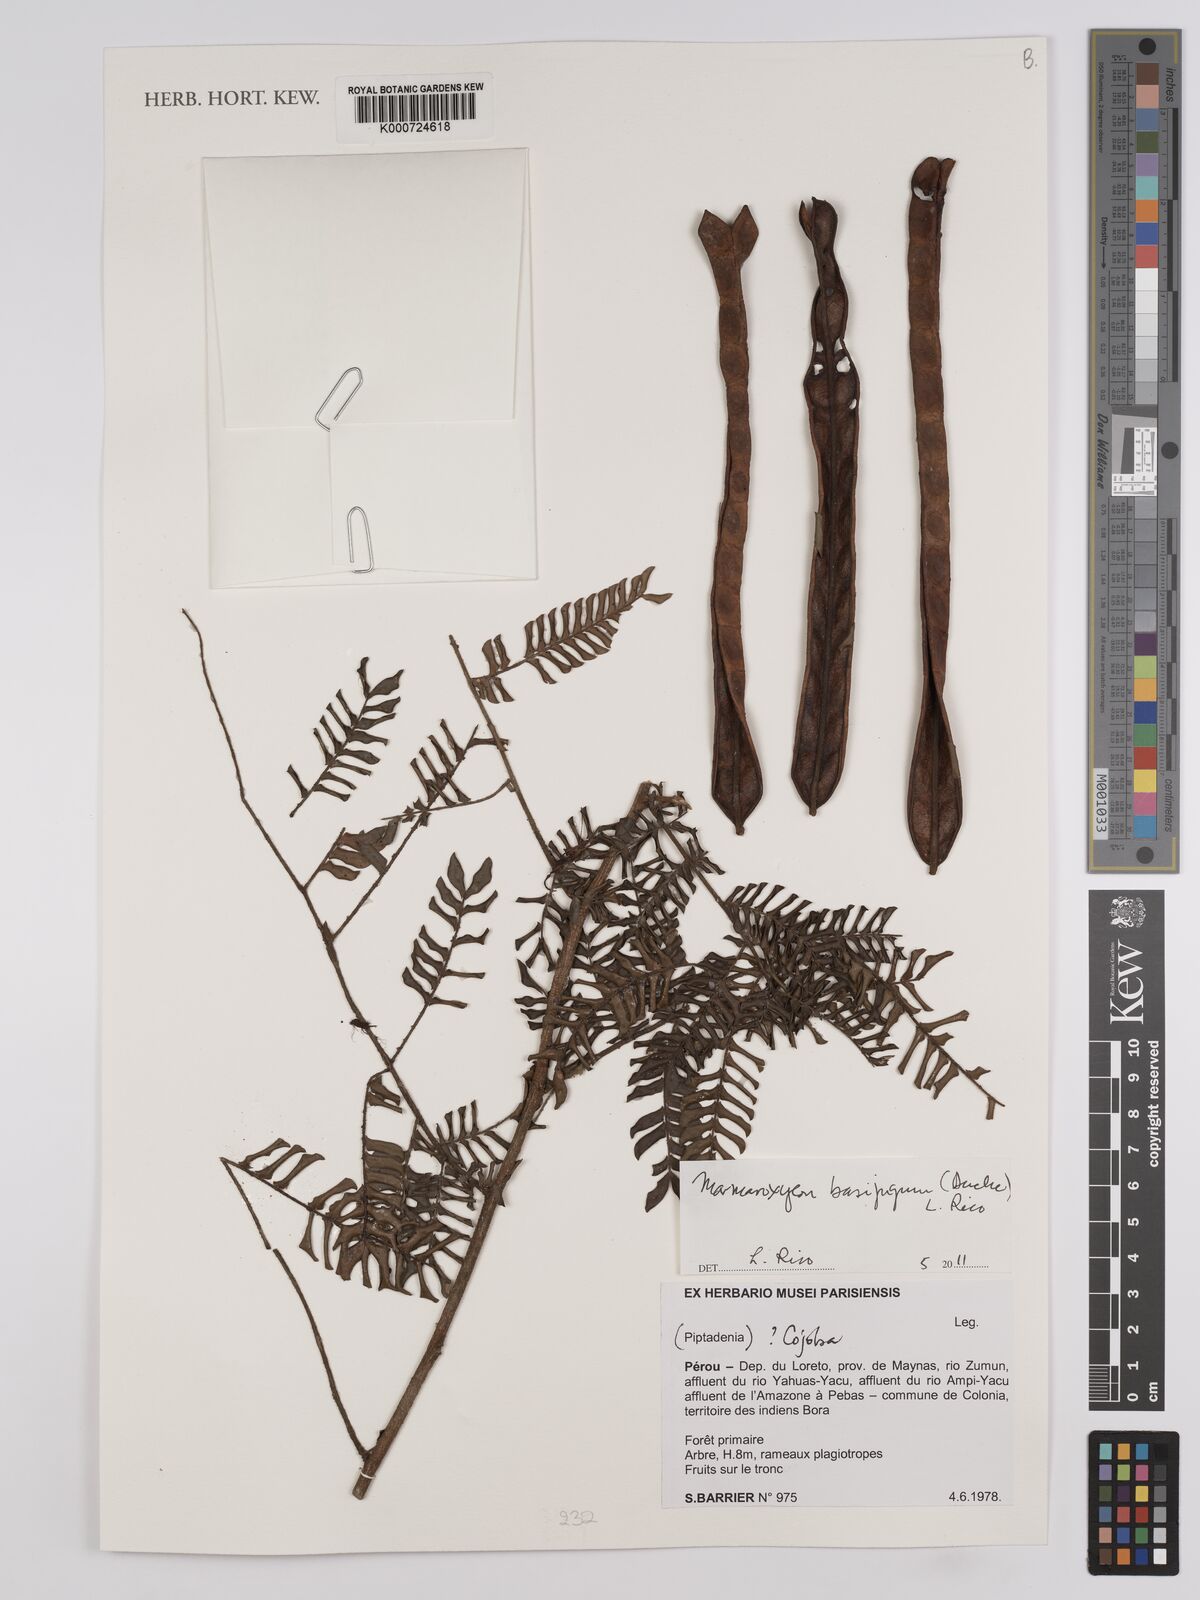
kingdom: Plantae
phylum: Tracheophyta
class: Magnoliopsida
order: Fabales
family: Fabaceae
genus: Zygia
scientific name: Zygia basijuga
